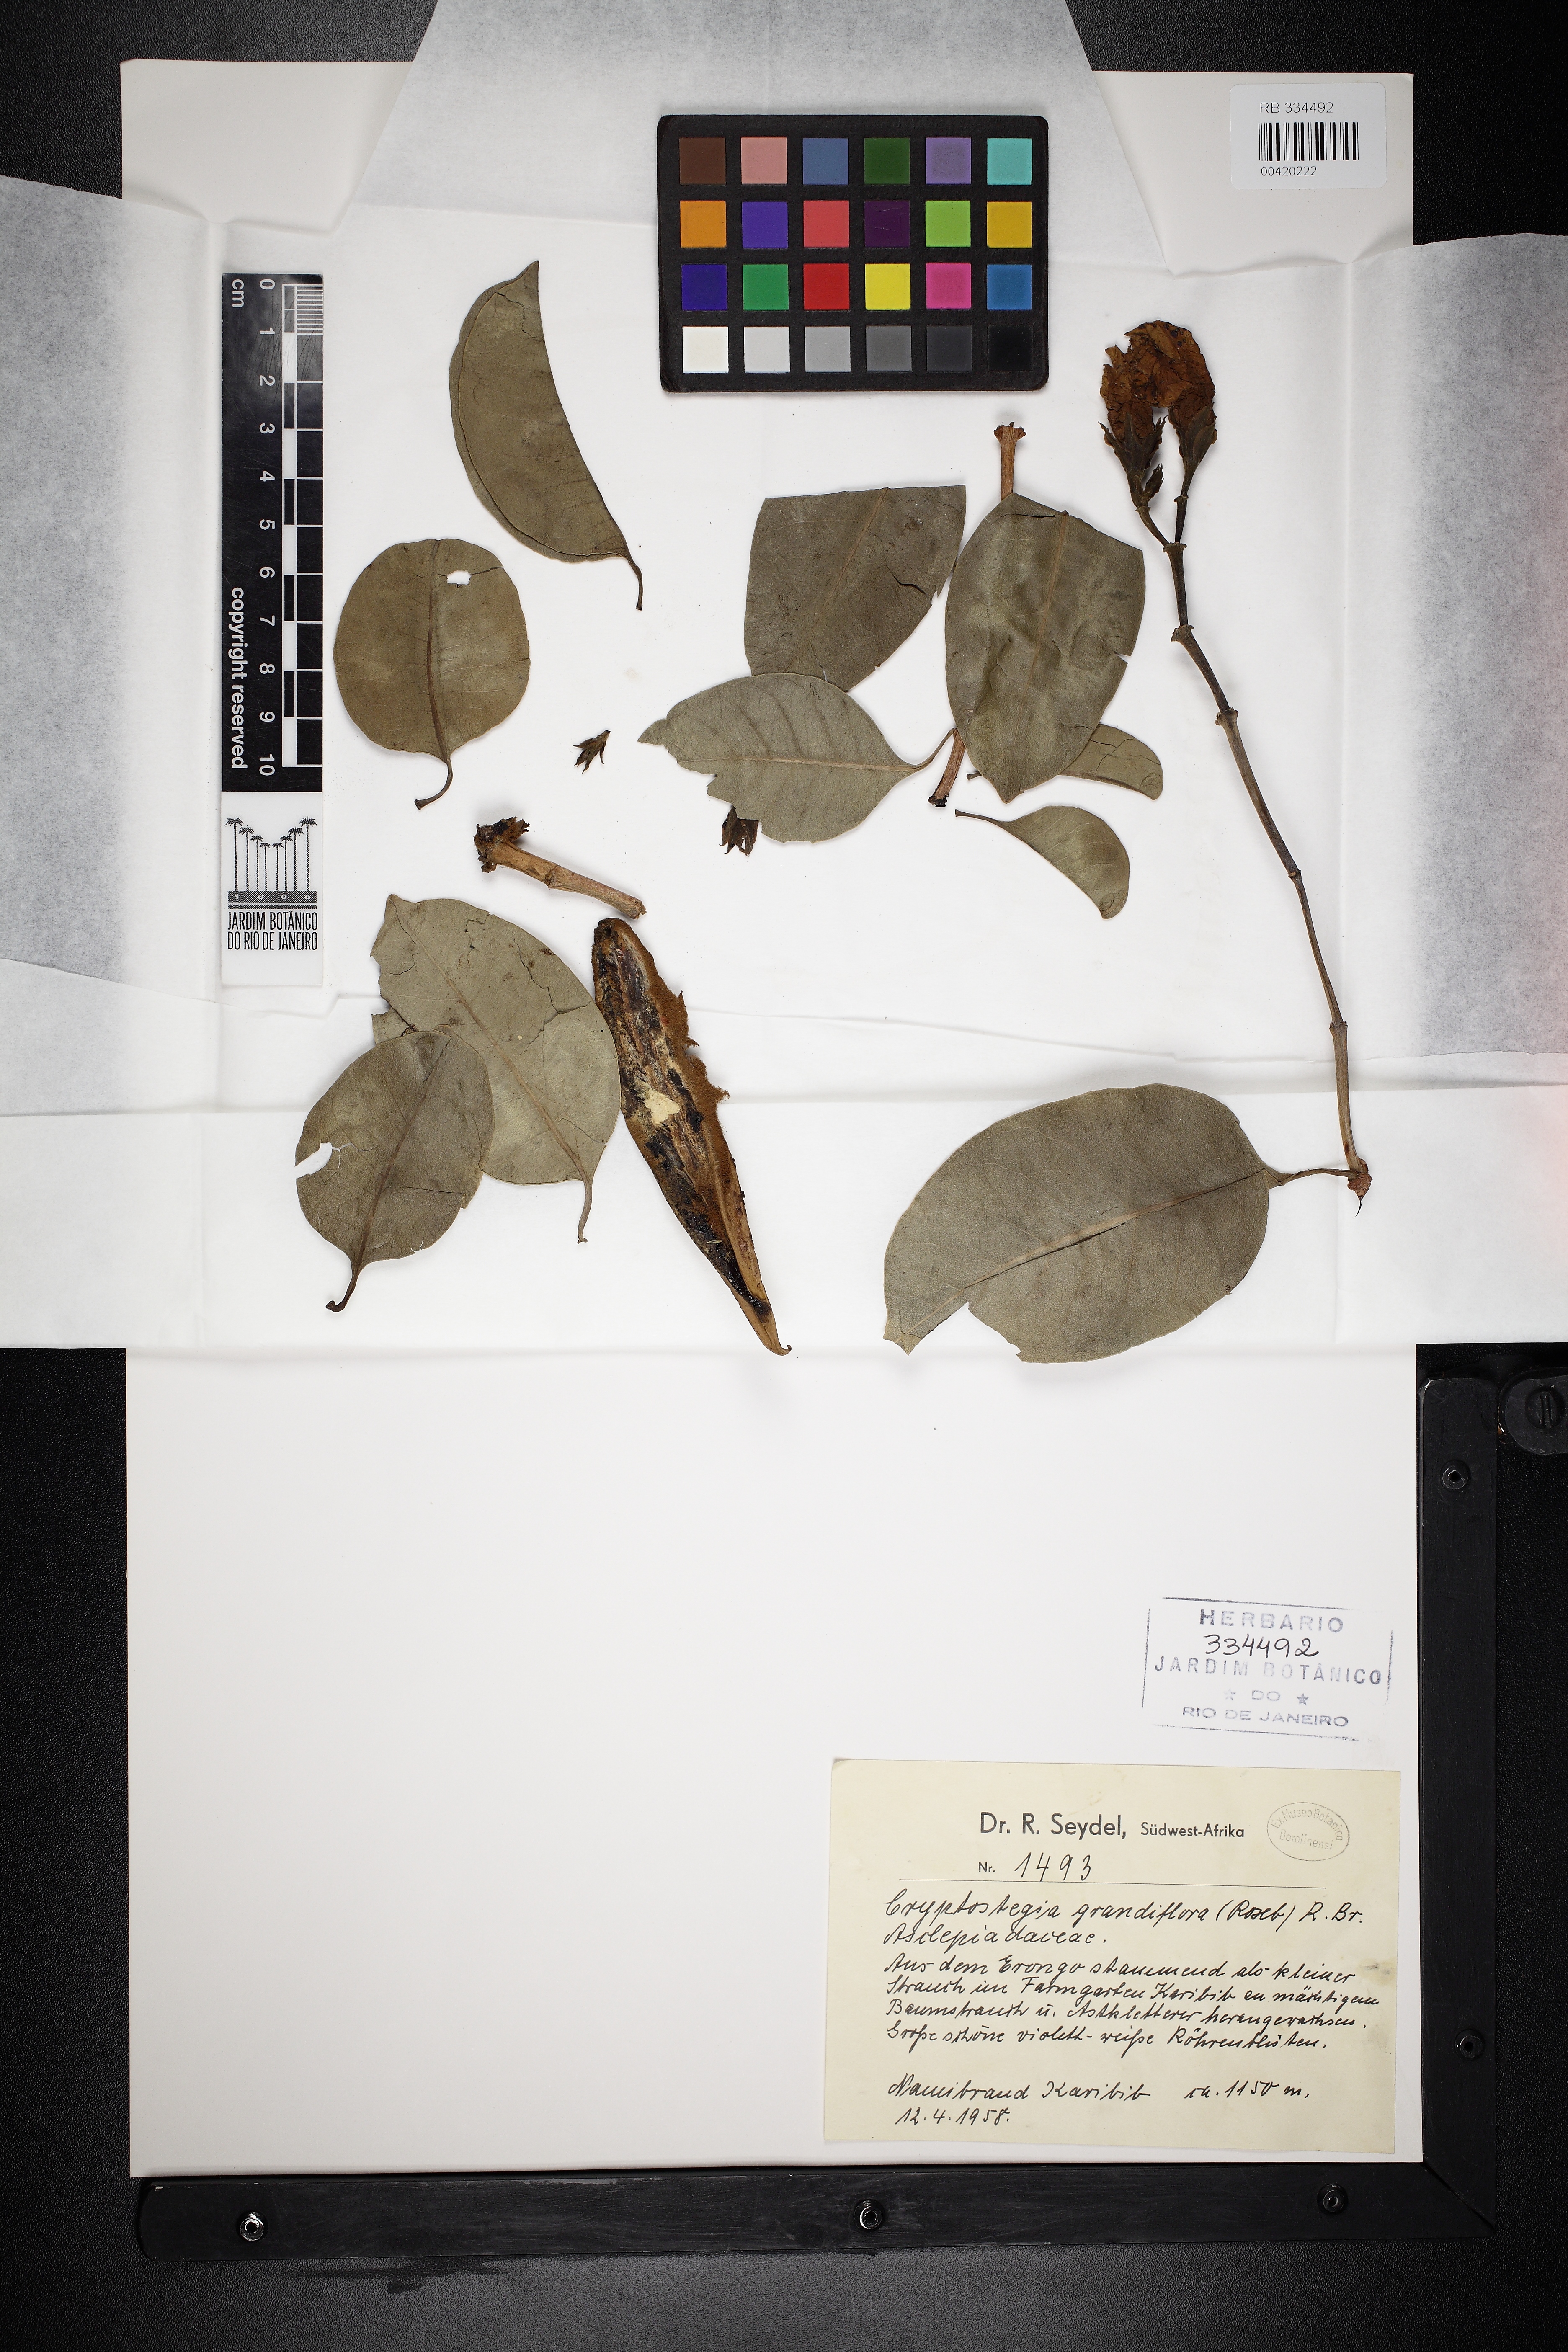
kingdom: Plantae
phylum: Tracheophyta
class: Magnoliopsida
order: Gentianales
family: Apocynaceae
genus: Cryptostegia
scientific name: Cryptostegia grandiflora
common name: Palay rubbervine
